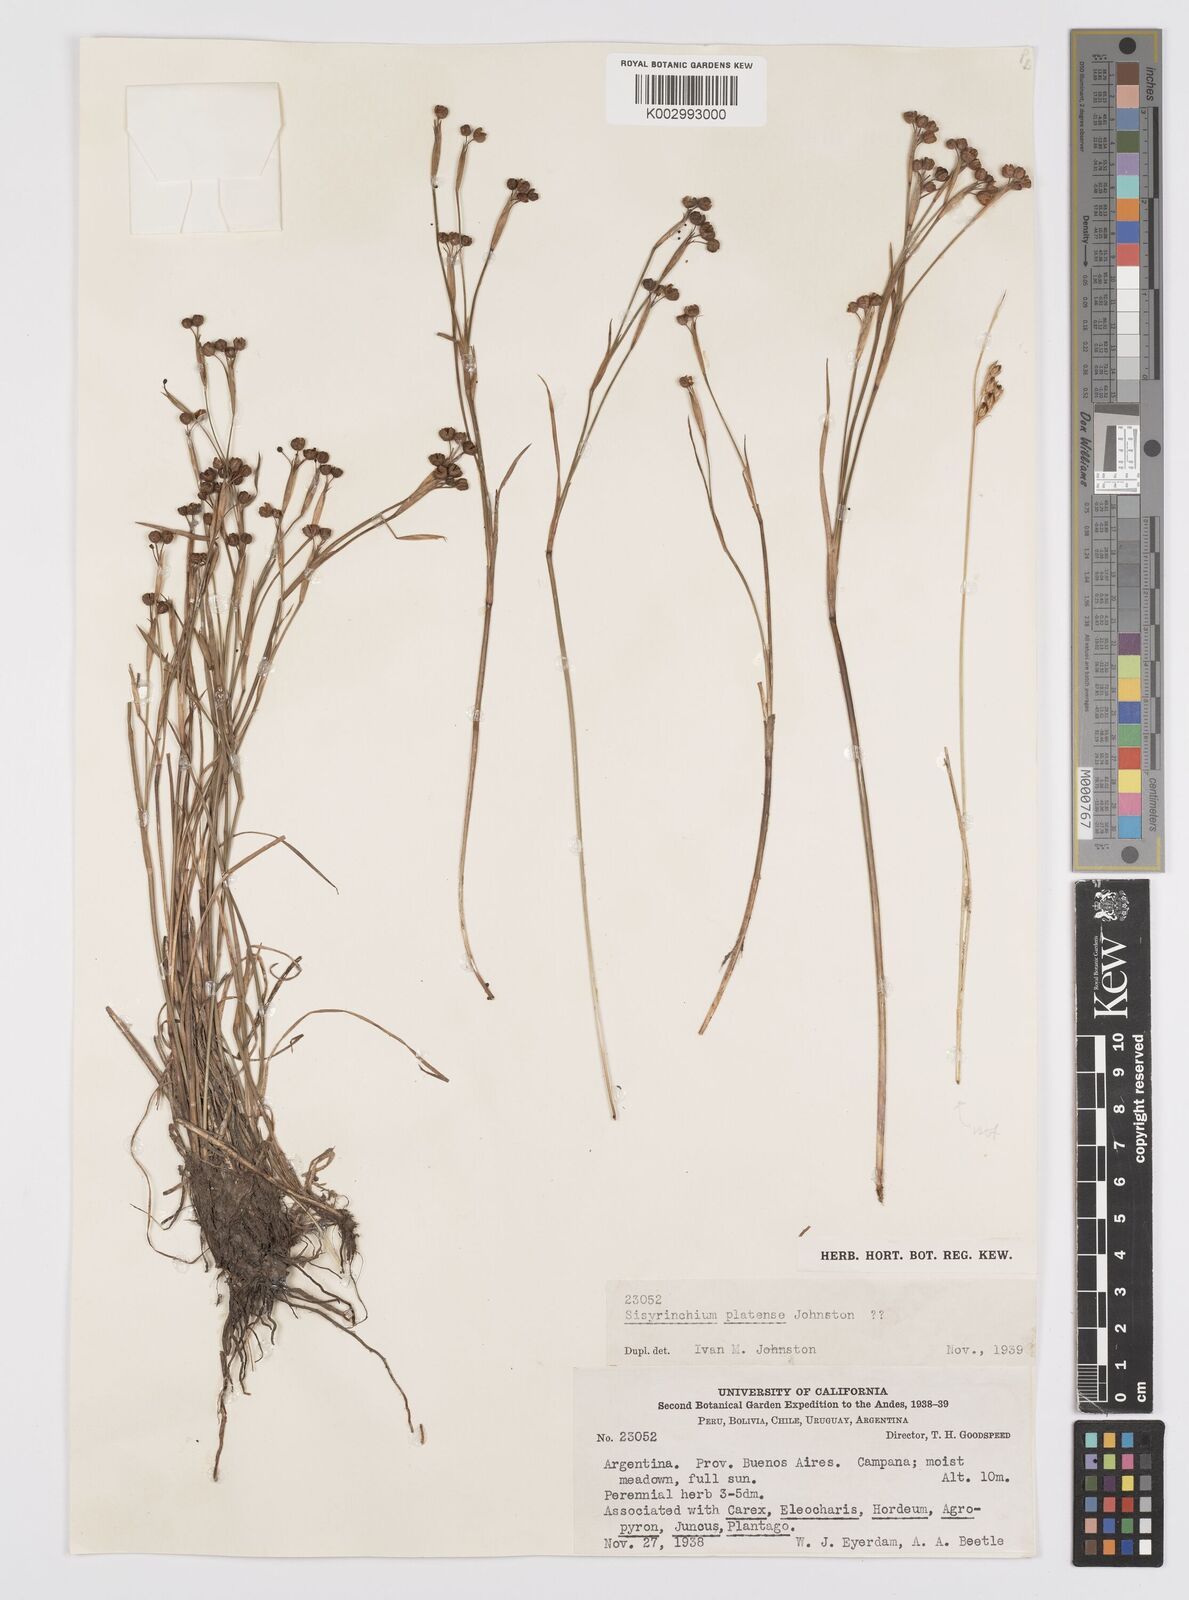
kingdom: Plantae
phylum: Tracheophyta
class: Liliopsida
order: Asparagales
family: Iridaceae
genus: Sisyrinchium
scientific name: Sisyrinchium platense
